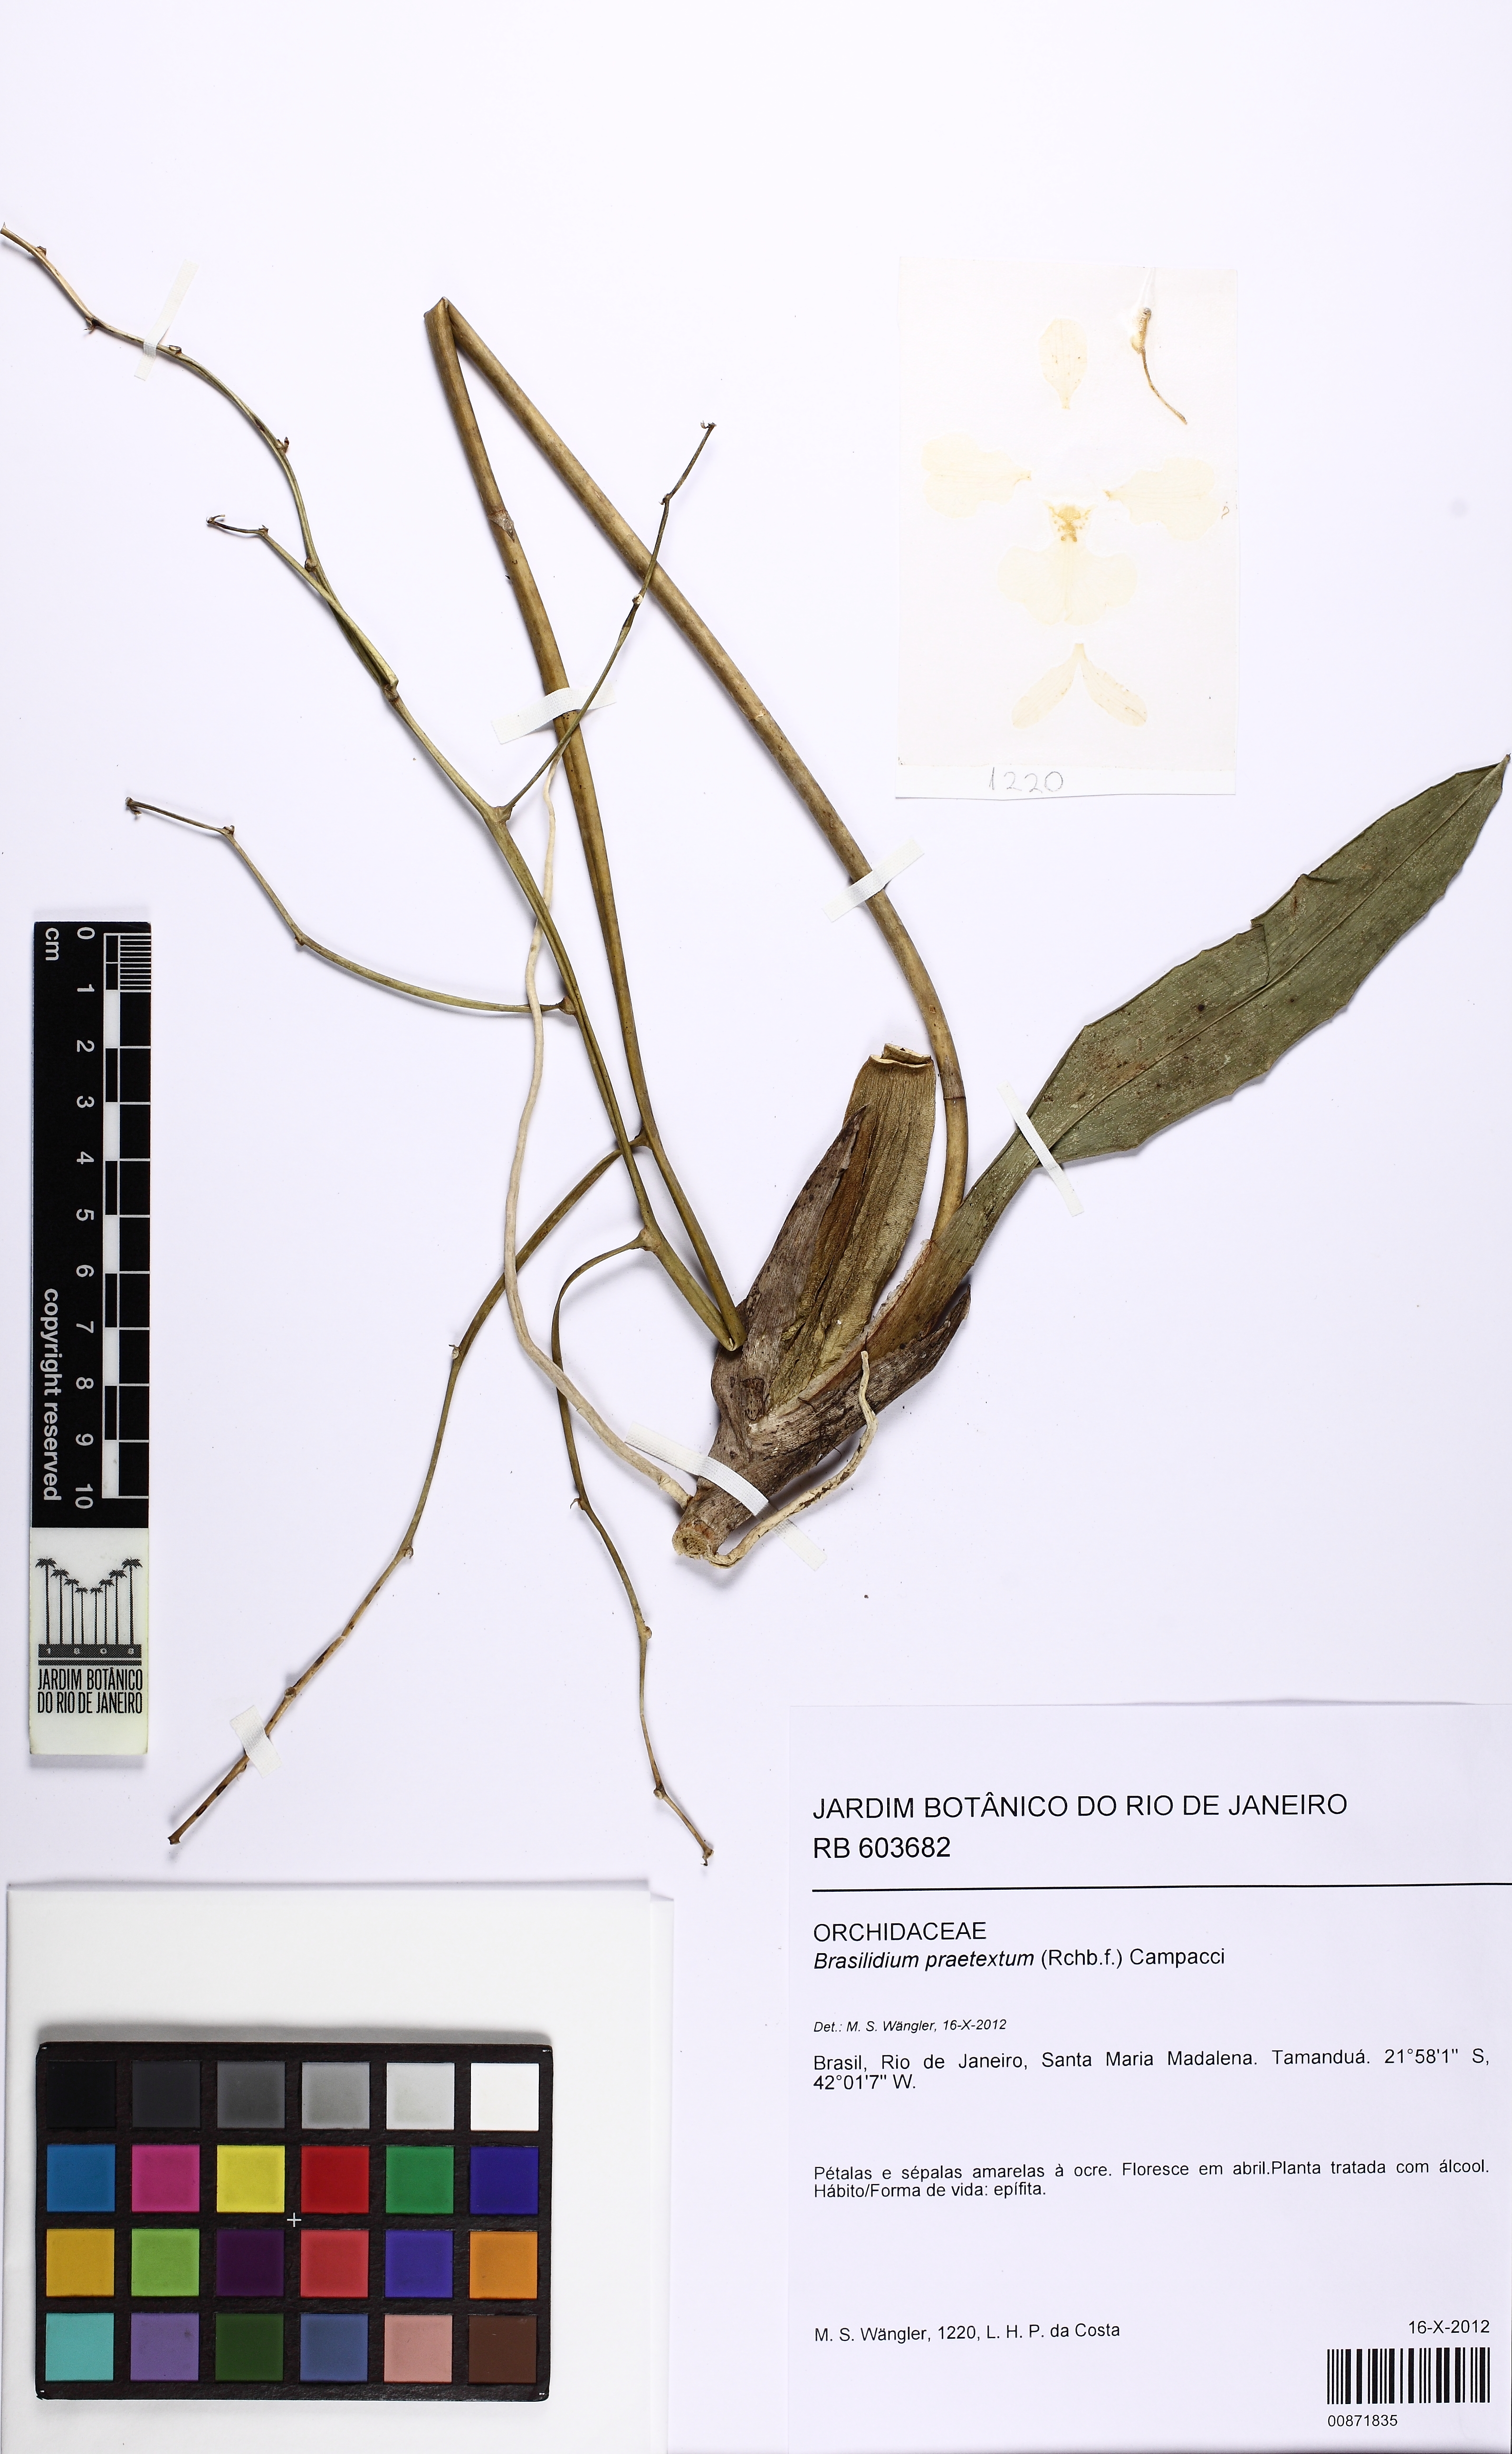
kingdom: Plantae
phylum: Tracheophyta
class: Liliopsida
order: Asparagales
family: Orchidaceae
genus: Gomesa
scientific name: Gomesa praetexta
